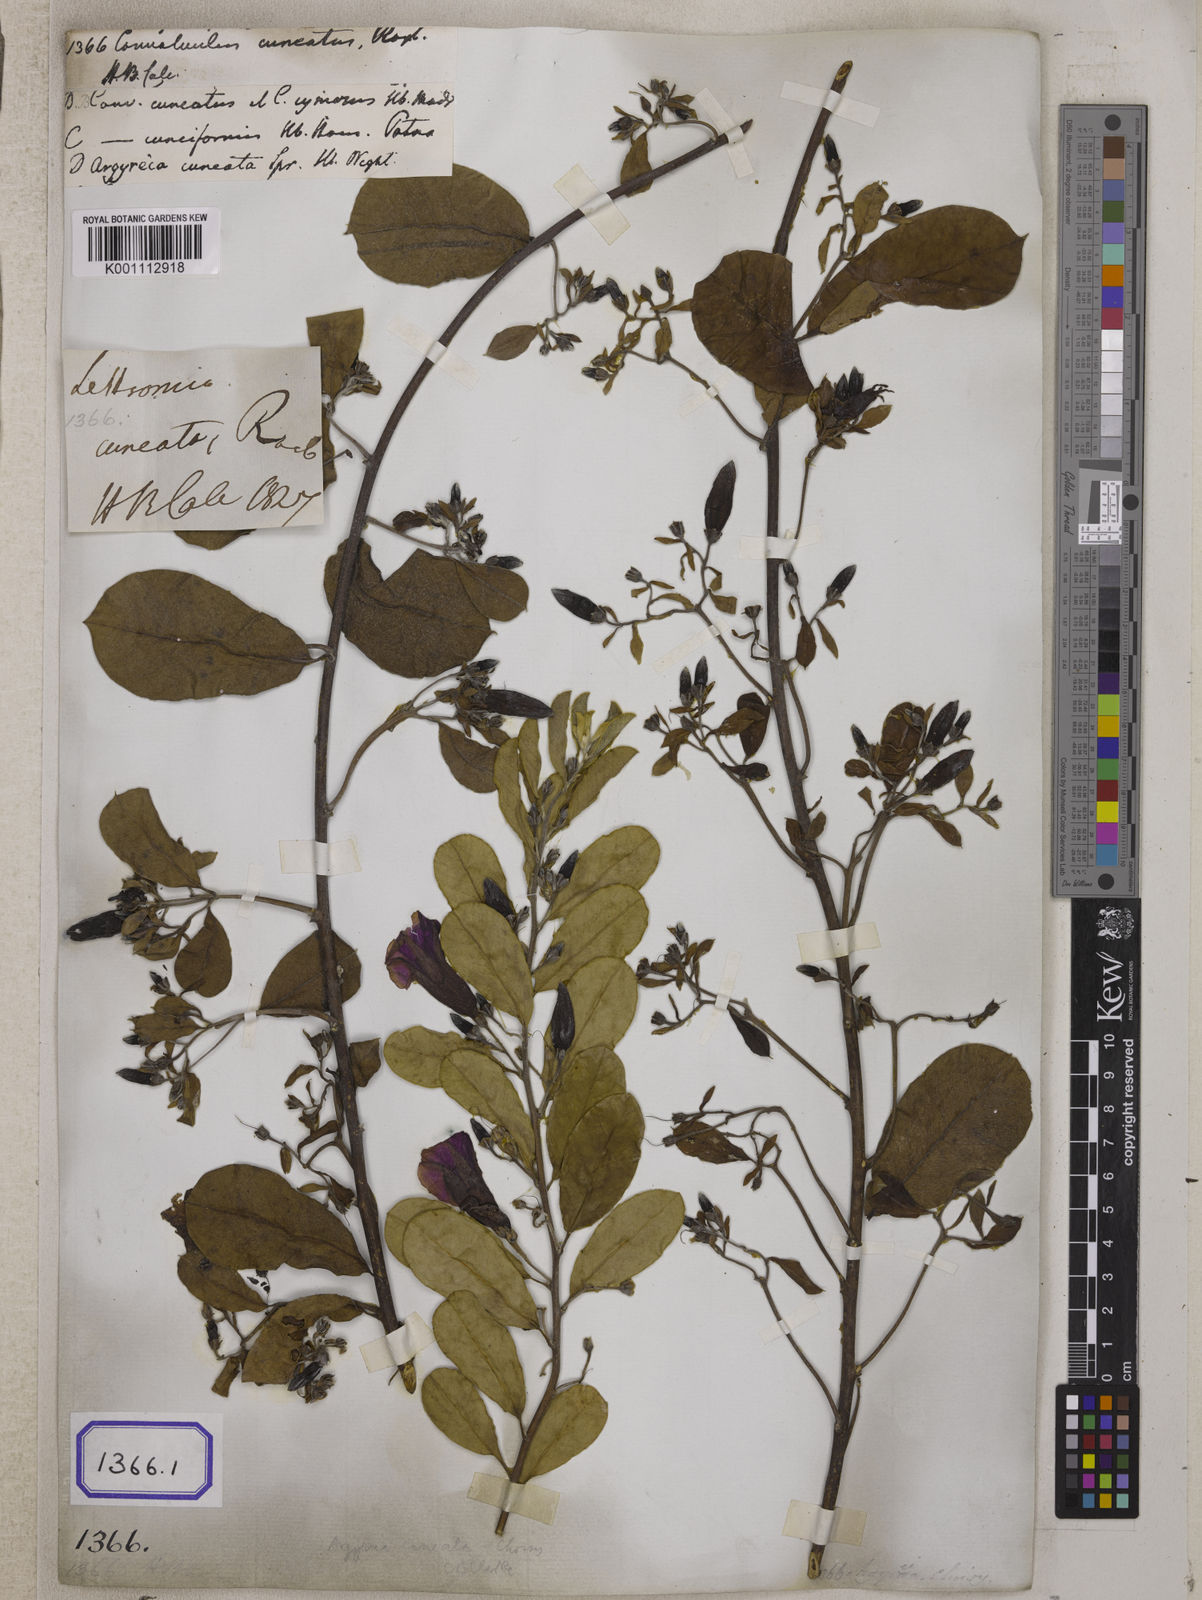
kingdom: Plantae
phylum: Tracheophyta
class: Magnoliopsida
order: Solanales
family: Convolvulaceae
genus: Convolvulus
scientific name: Convolvulus
